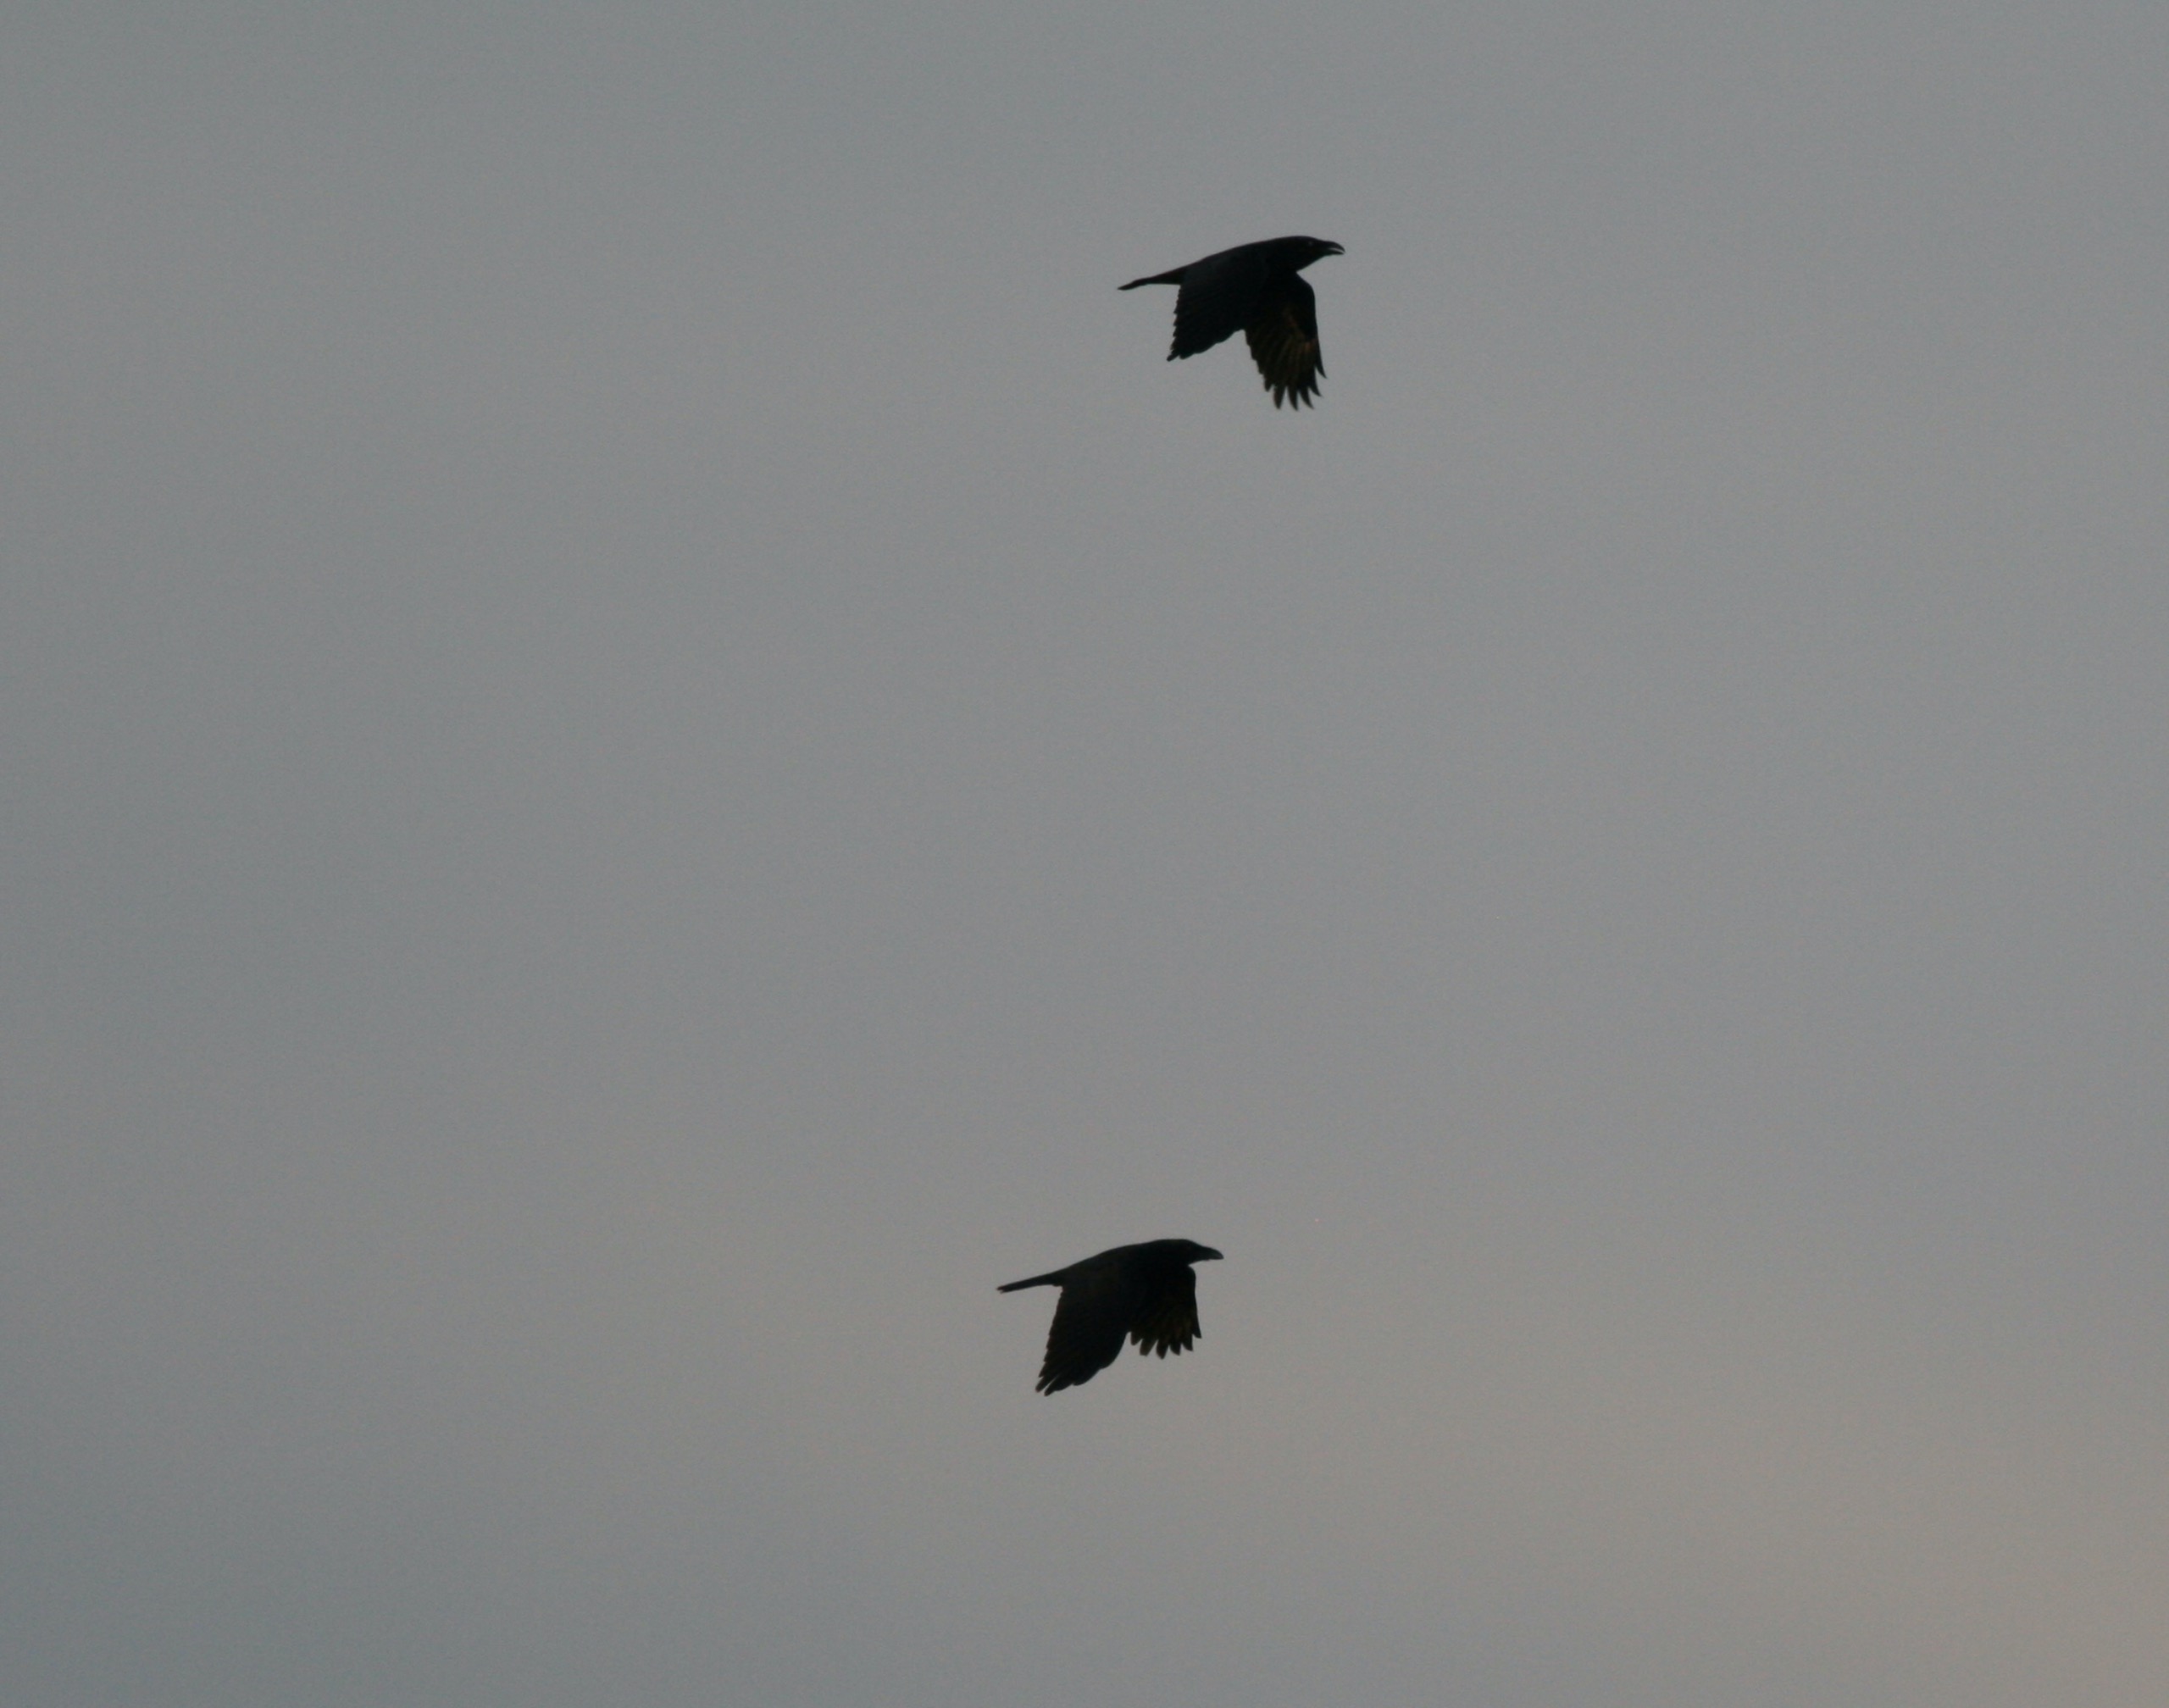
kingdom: Animalia
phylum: Chordata
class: Aves
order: Passeriformes
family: Corvidae
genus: Corvus
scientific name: Corvus corax
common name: Ravn
